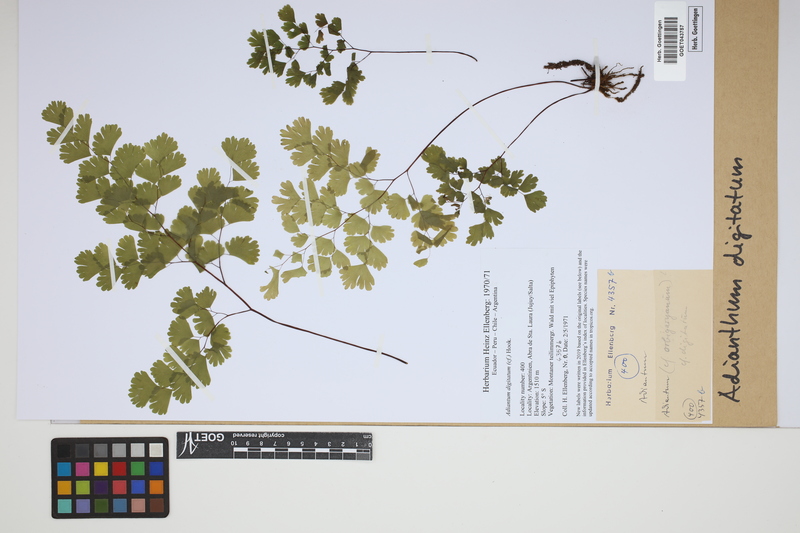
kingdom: Plantae
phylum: Tracheophyta
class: Polypodiopsida
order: Polypodiales
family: Pteridaceae
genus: Adiantum
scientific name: Adiantum digitatum
